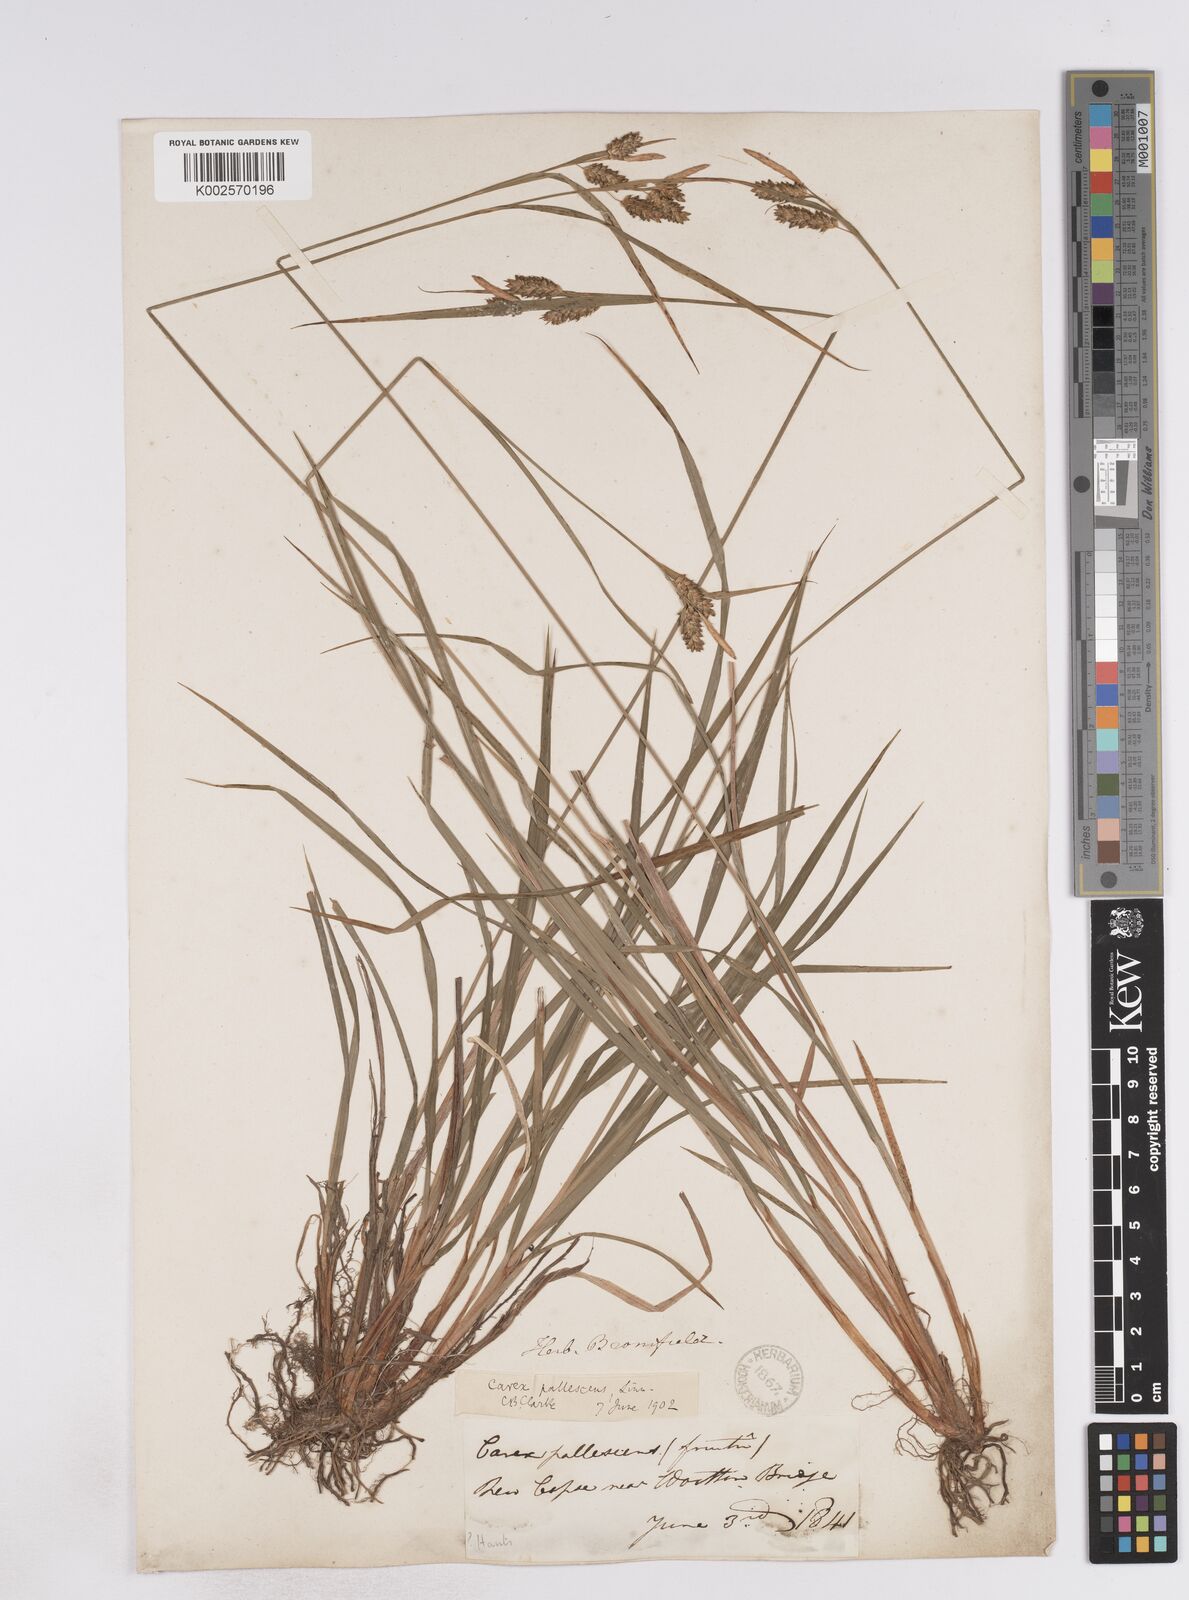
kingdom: Plantae
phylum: Tracheophyta
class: Liliopsida
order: Poales
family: Cyperaceae
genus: Carex
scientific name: Carex pallescens
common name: Pale sedge
